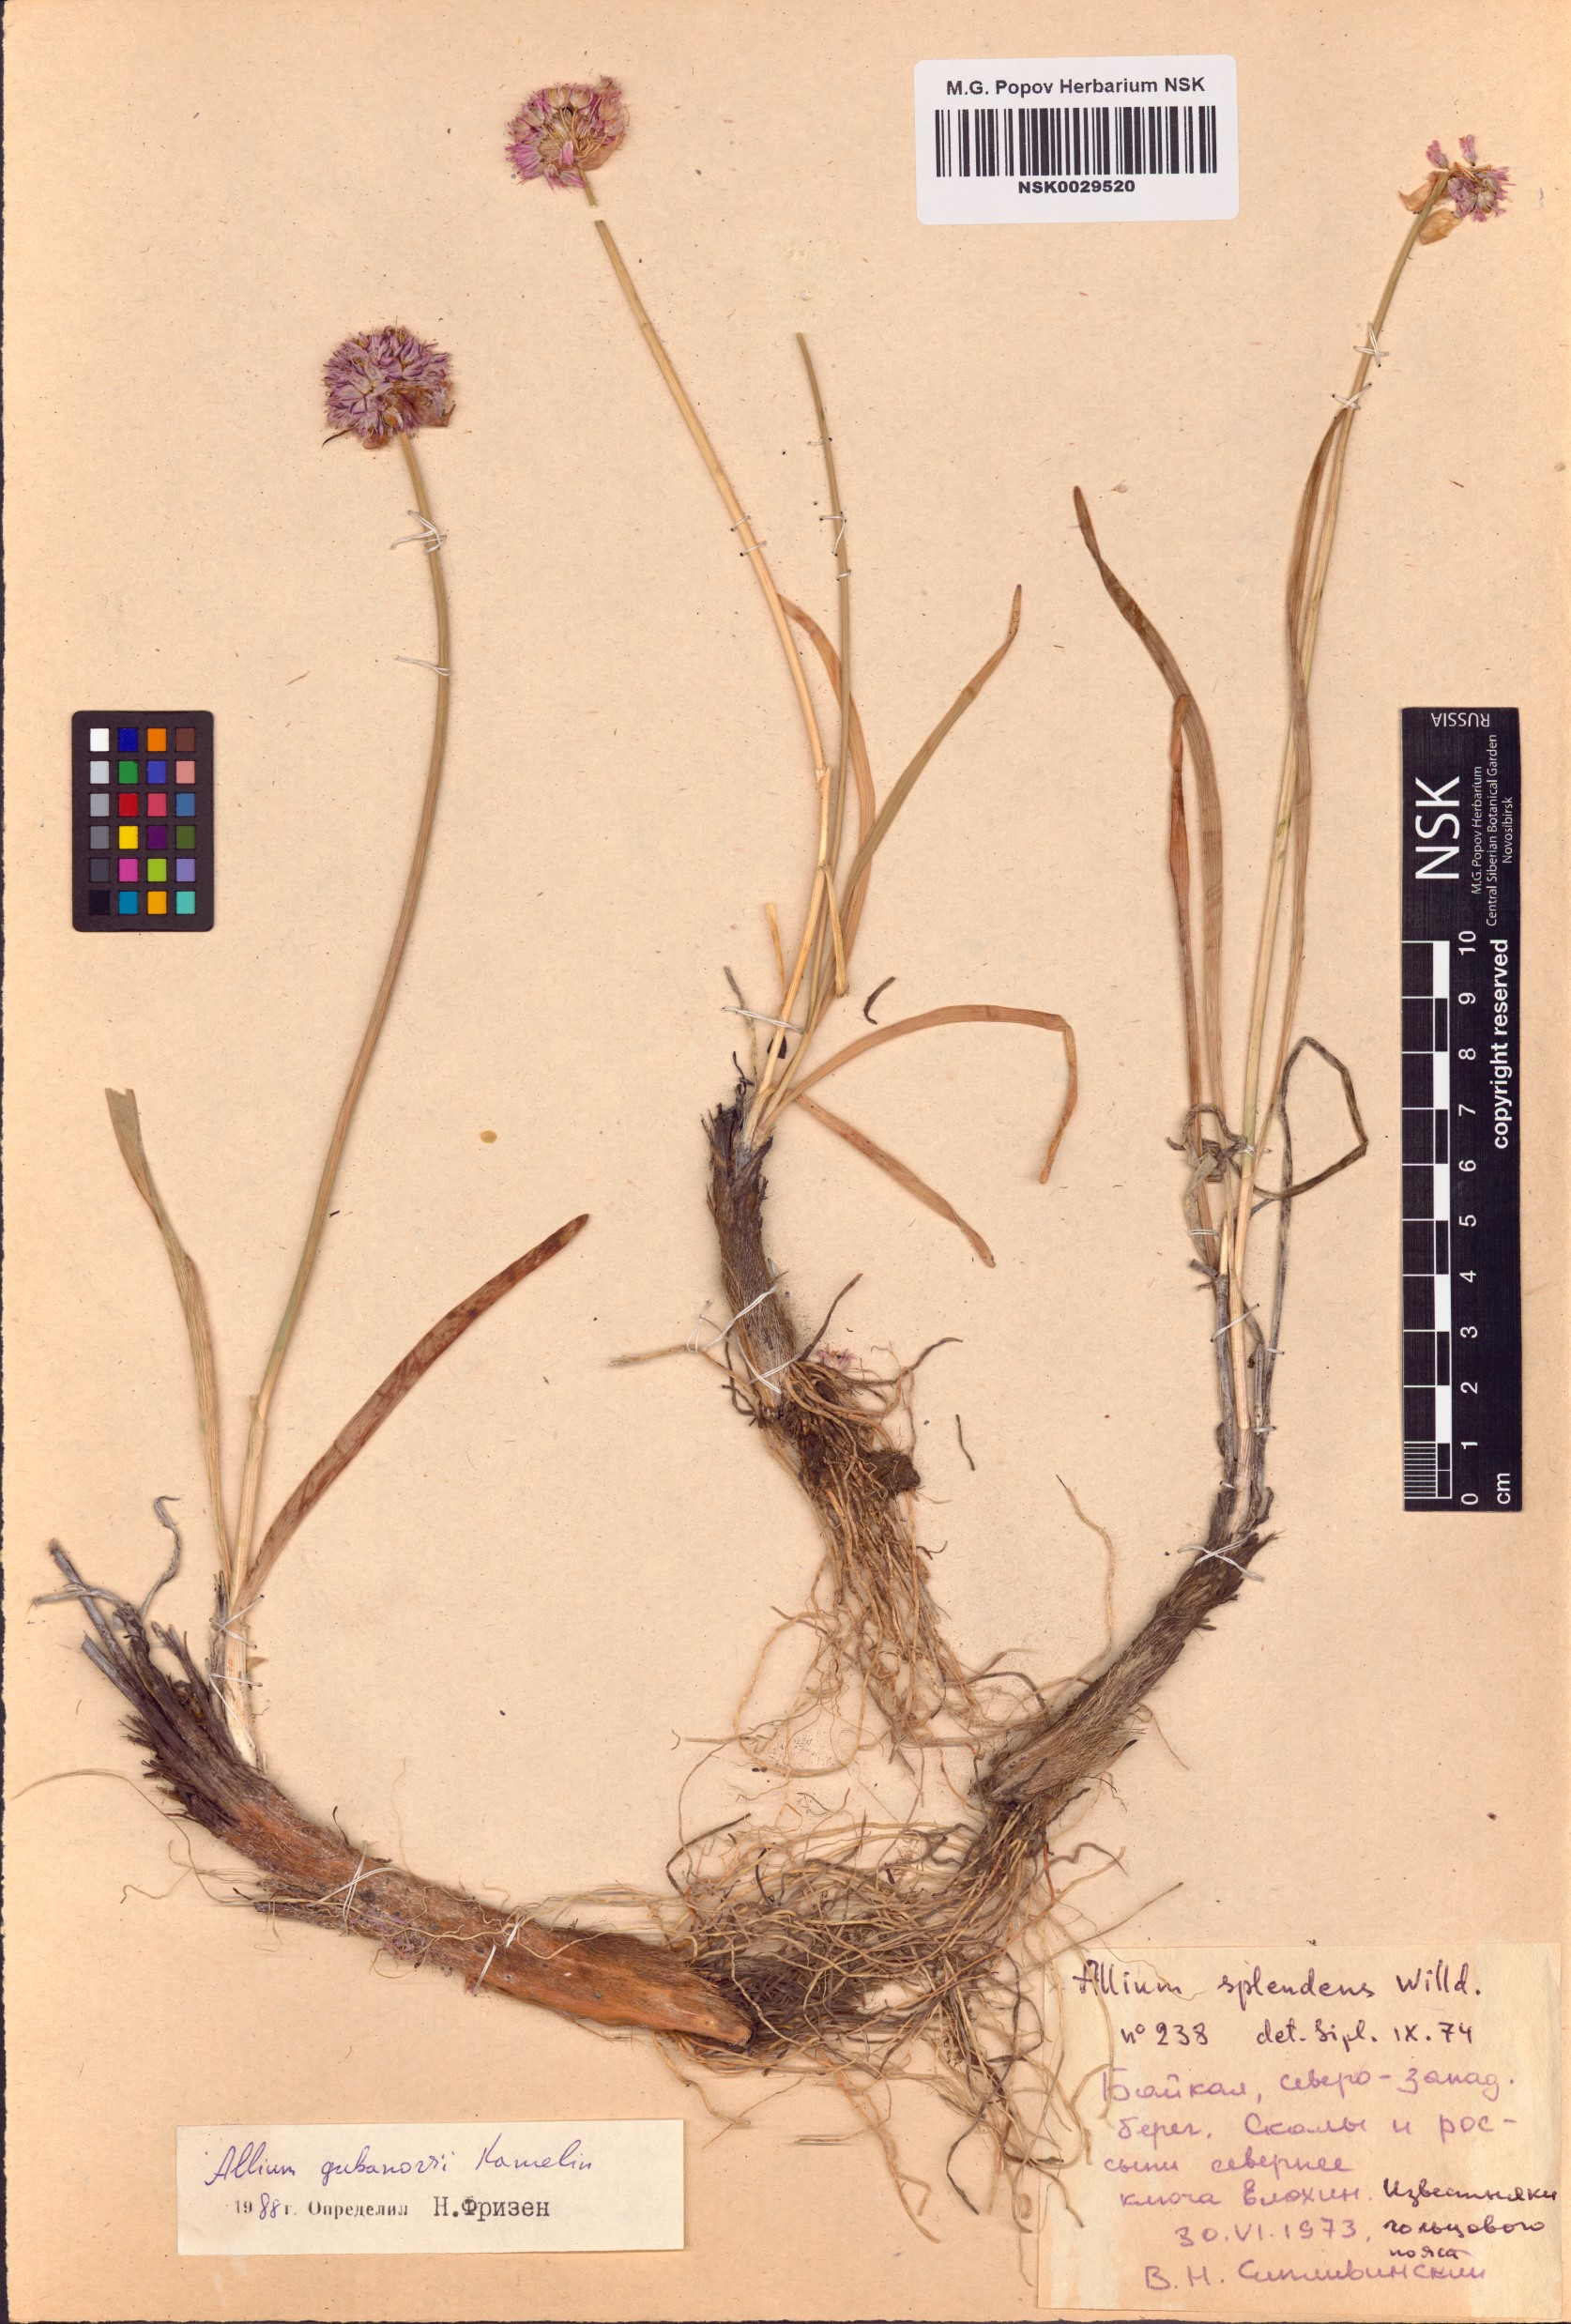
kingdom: Plantae
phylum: Tracheophyta
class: Liliopsida
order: Asparagales
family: Amaryllidaceae
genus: Allium
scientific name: Allium gubanovii
